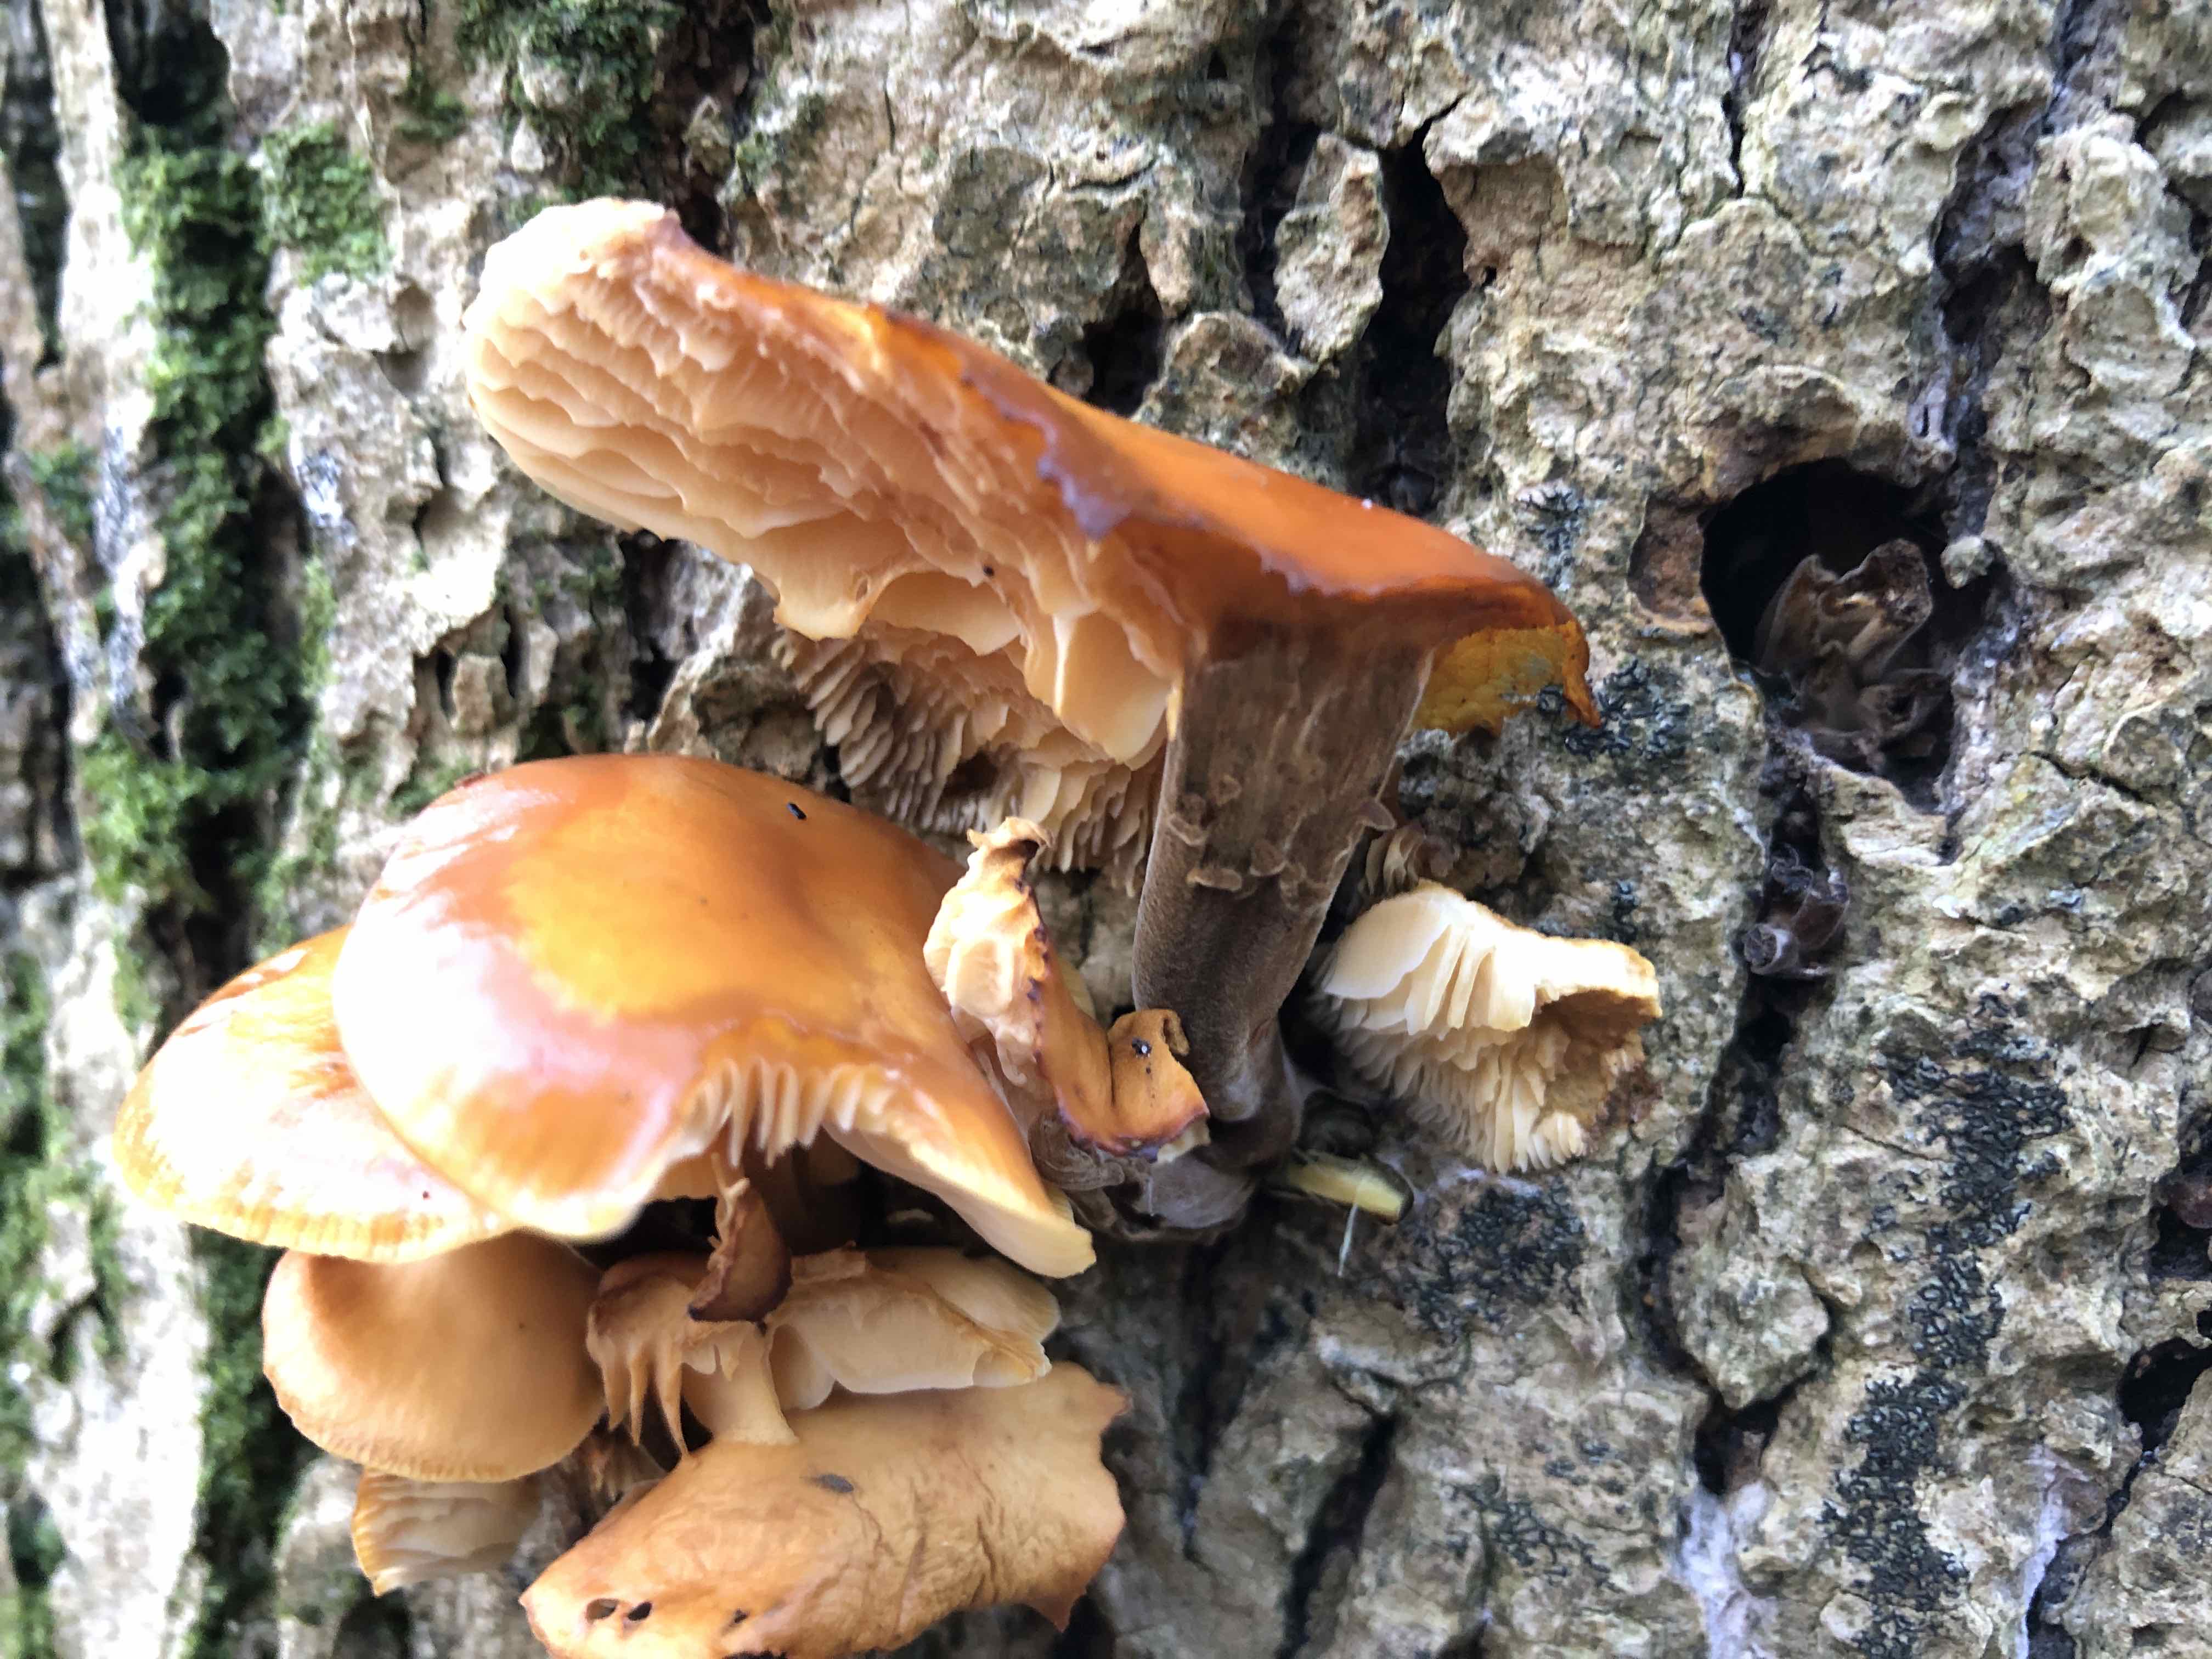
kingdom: Fungi
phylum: Basidiomycota
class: Agaricomycetes
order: Agaricales
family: Physalacriaceae
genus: Flammulina
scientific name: Flammulina velutipes
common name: gul fløjlsfod
